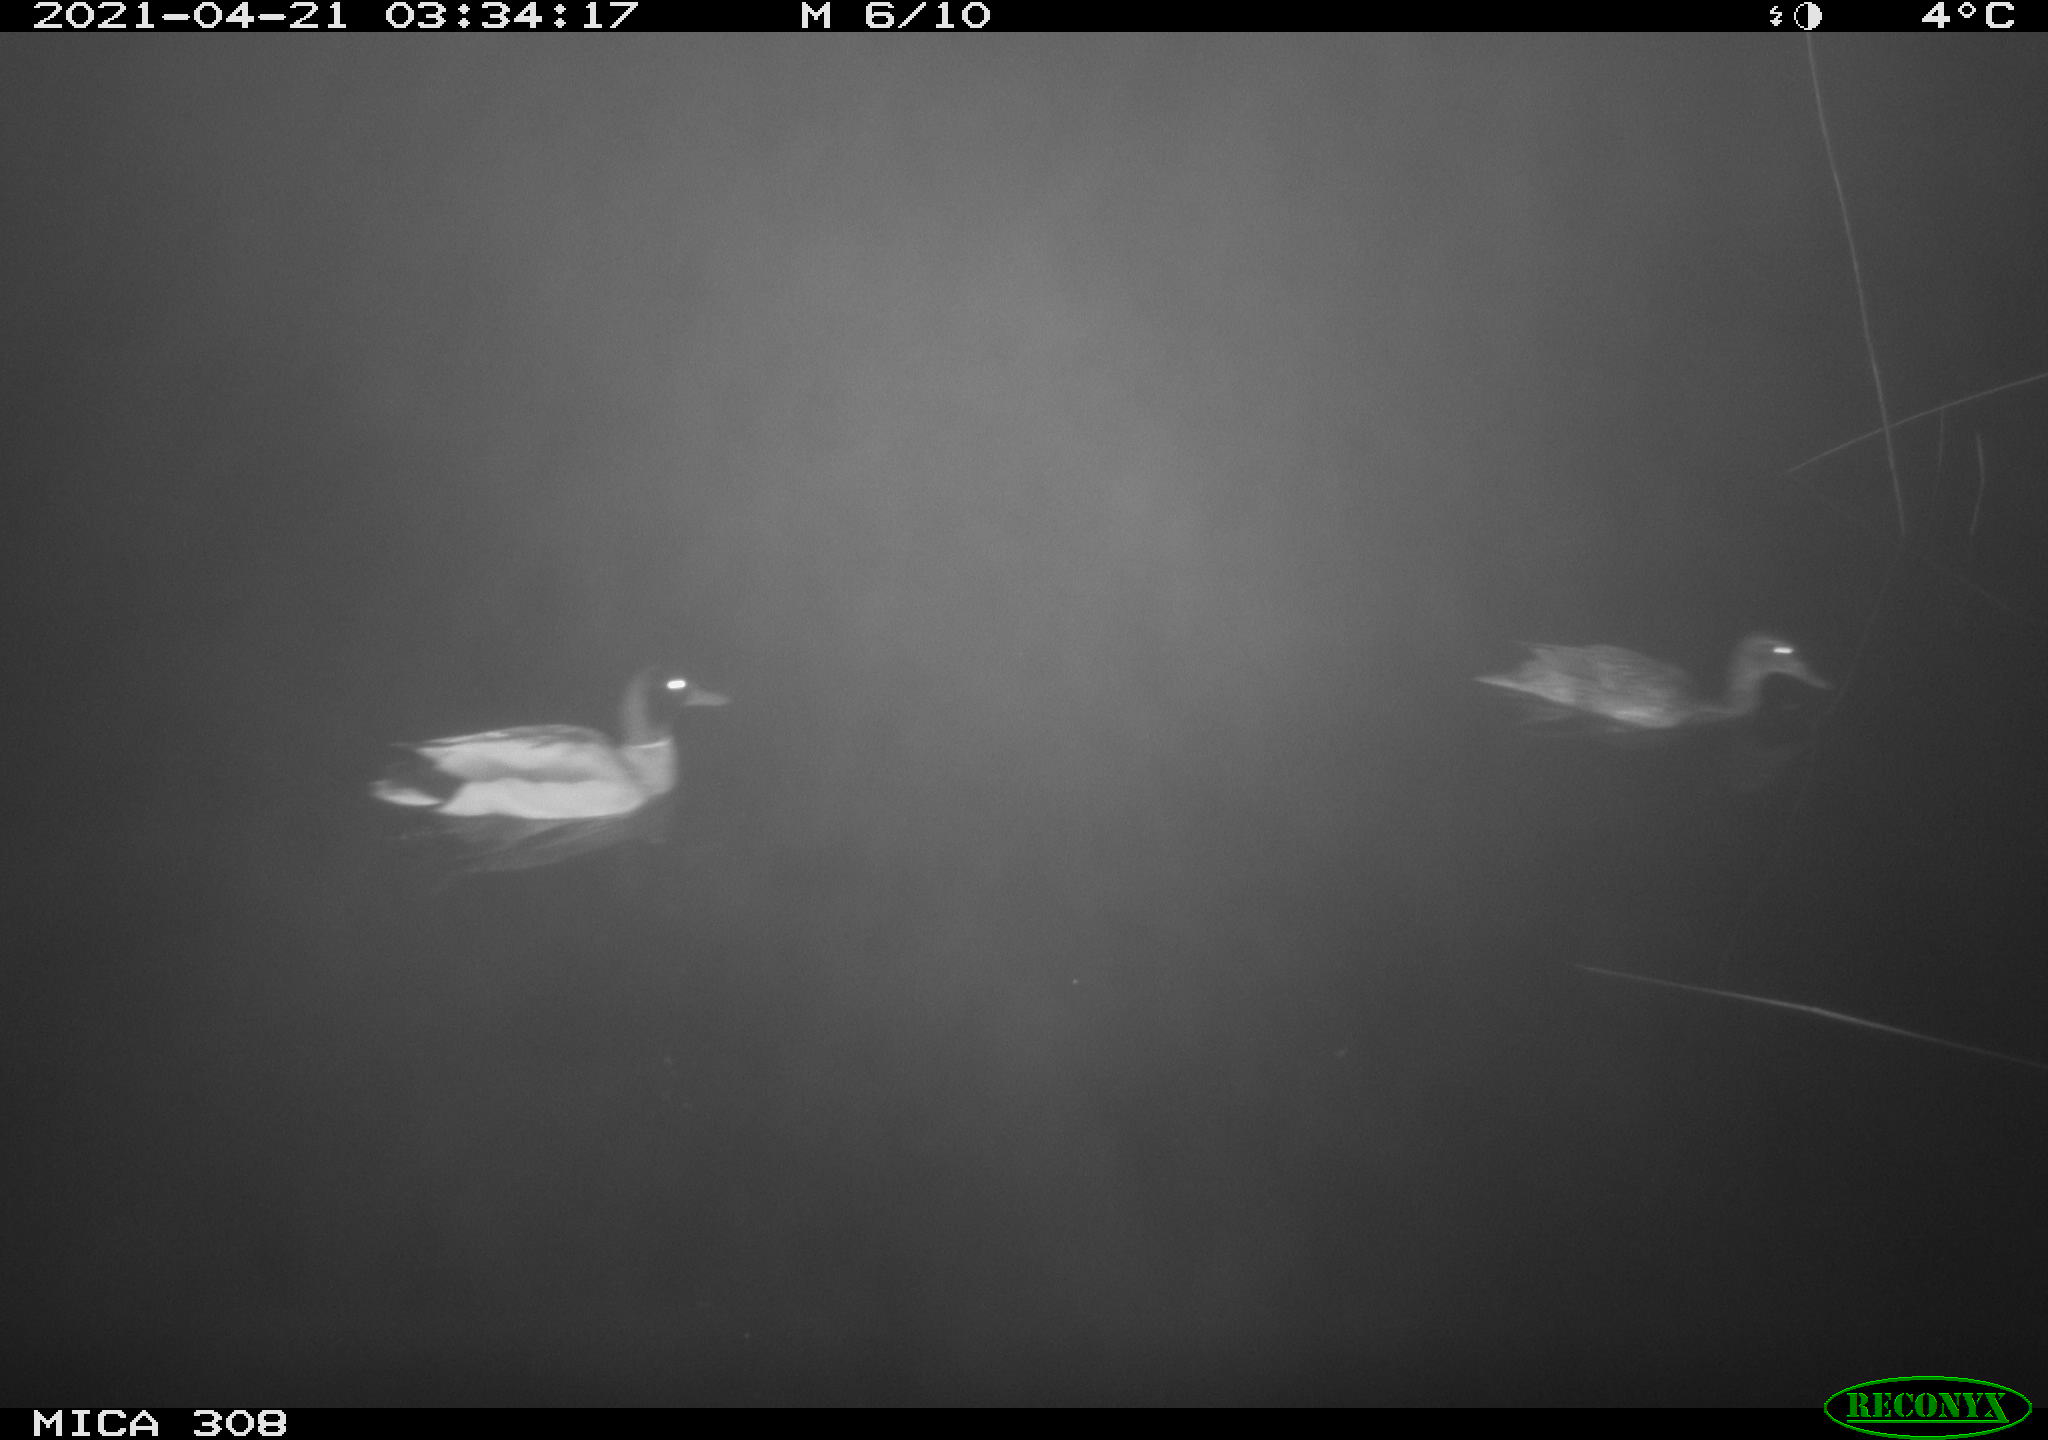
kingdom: Animalia
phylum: Chordata
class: Aves
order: Anseriformes
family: Anatidae
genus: Anas
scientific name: Anas platyrhynchos
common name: Mallard
